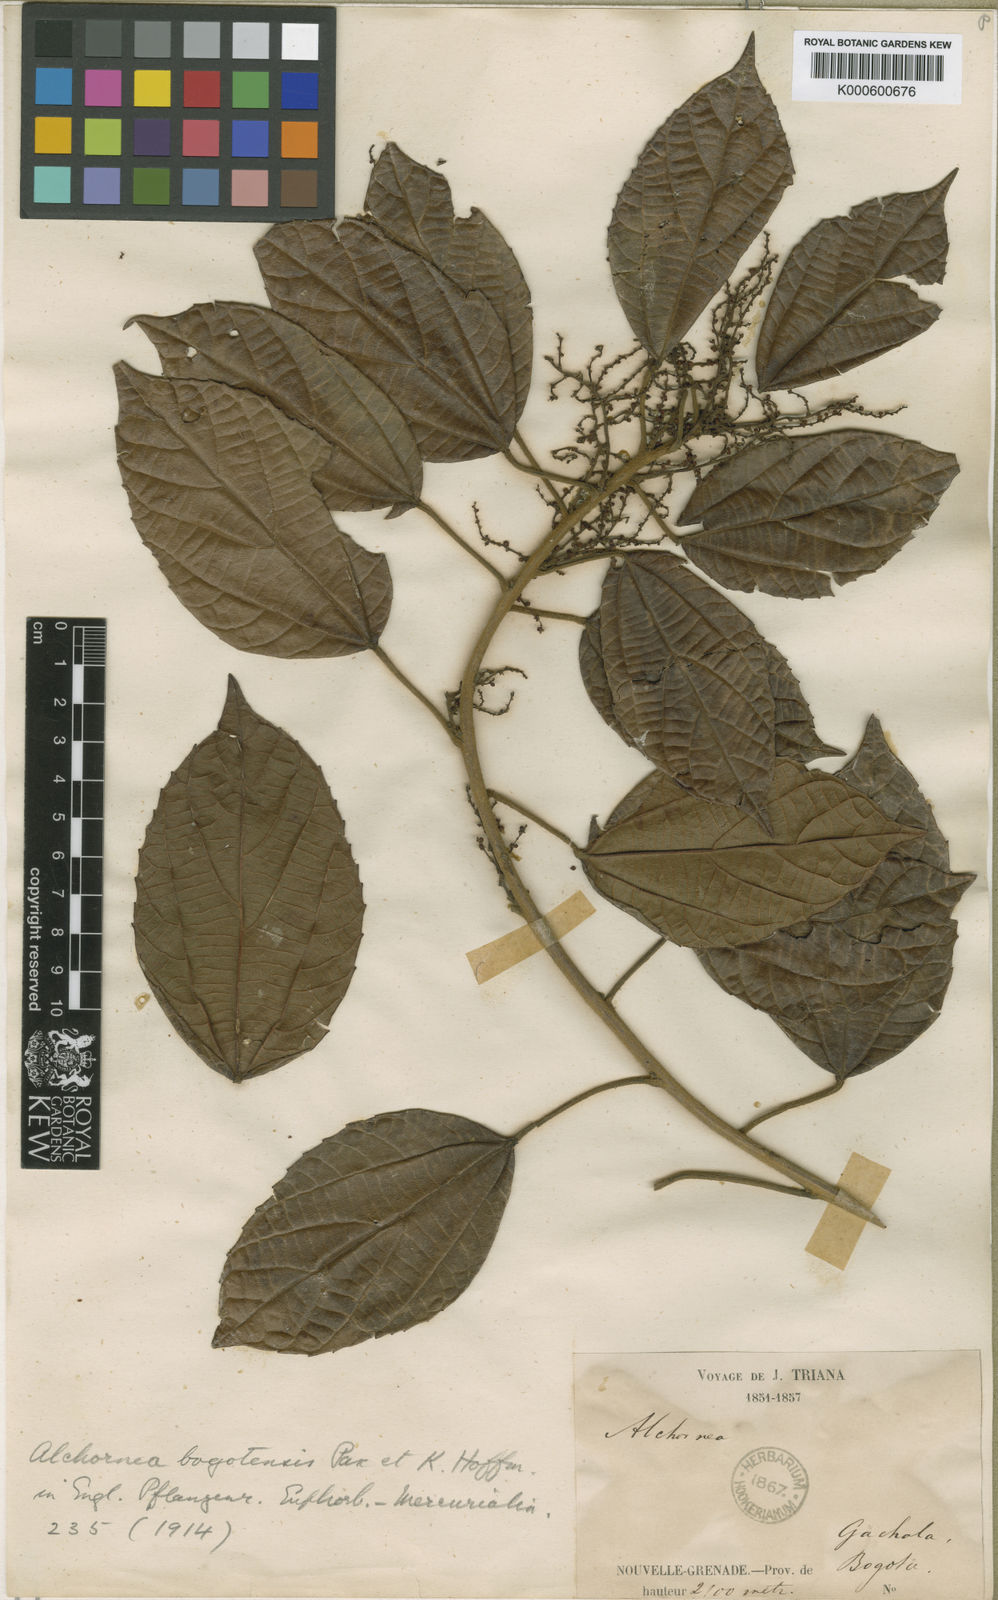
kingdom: Plantae
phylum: Tracheophyta
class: Magnoliopsida
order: Malpighiales
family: Euphorbiaceae
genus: Alchornea
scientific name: Alchornea bogotensis
